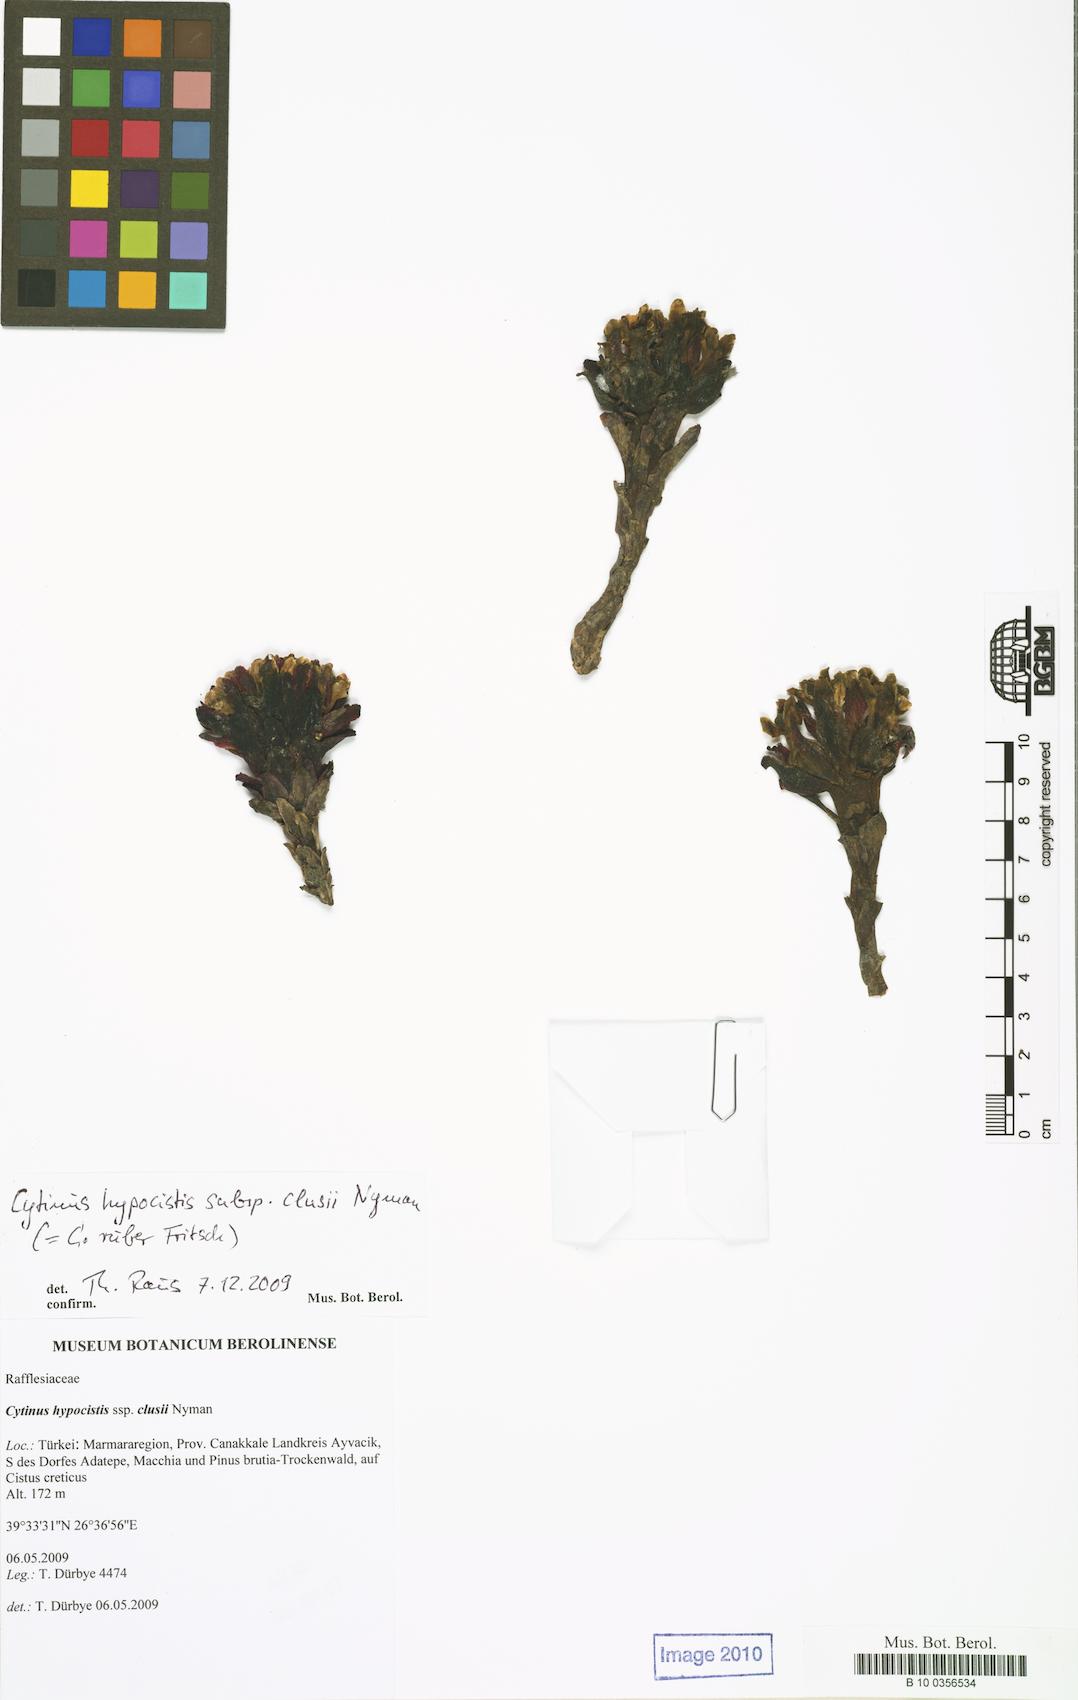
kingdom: Plantae
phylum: Tracheophyta
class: Magnoliopsida
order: Malvales
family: Cytinaceae
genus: Cytinus
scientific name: Cytinus ruber
